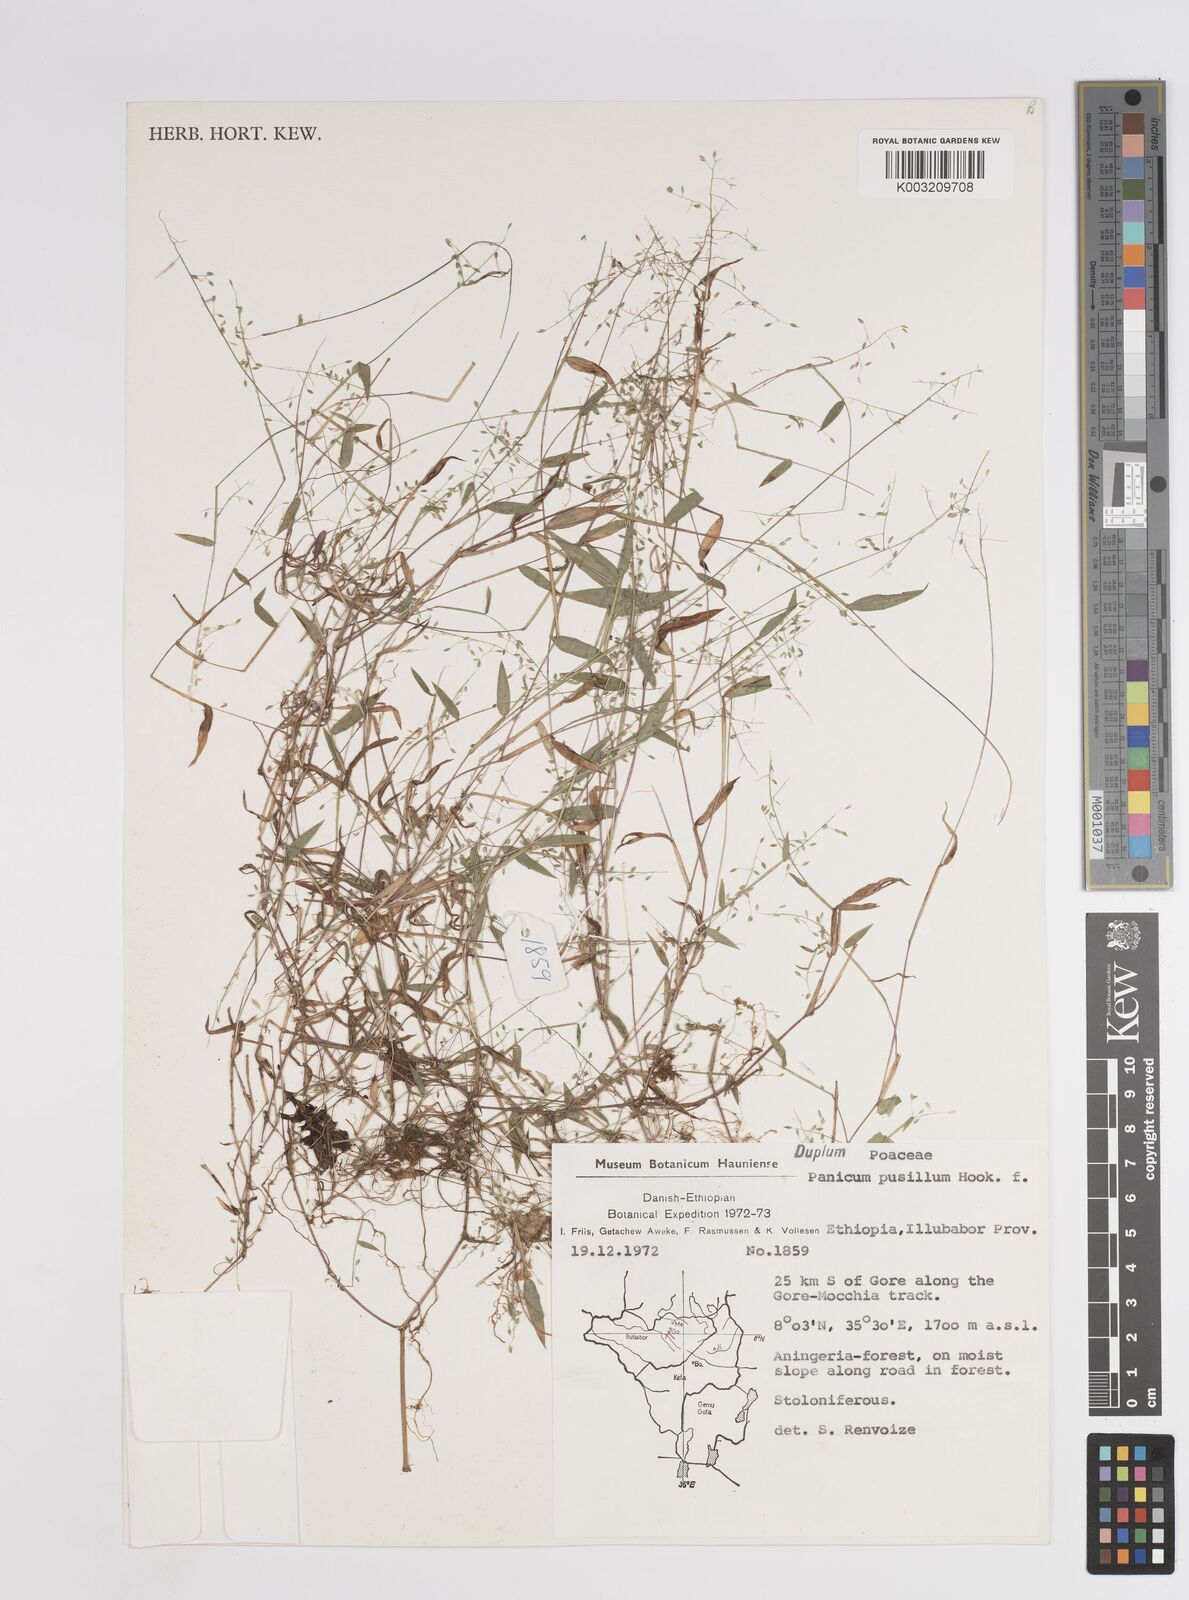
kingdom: Plantae
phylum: Tracheophyta
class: Liliopsida
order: Poales
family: Poaceae
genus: Panicum
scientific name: Panicum pusillum
